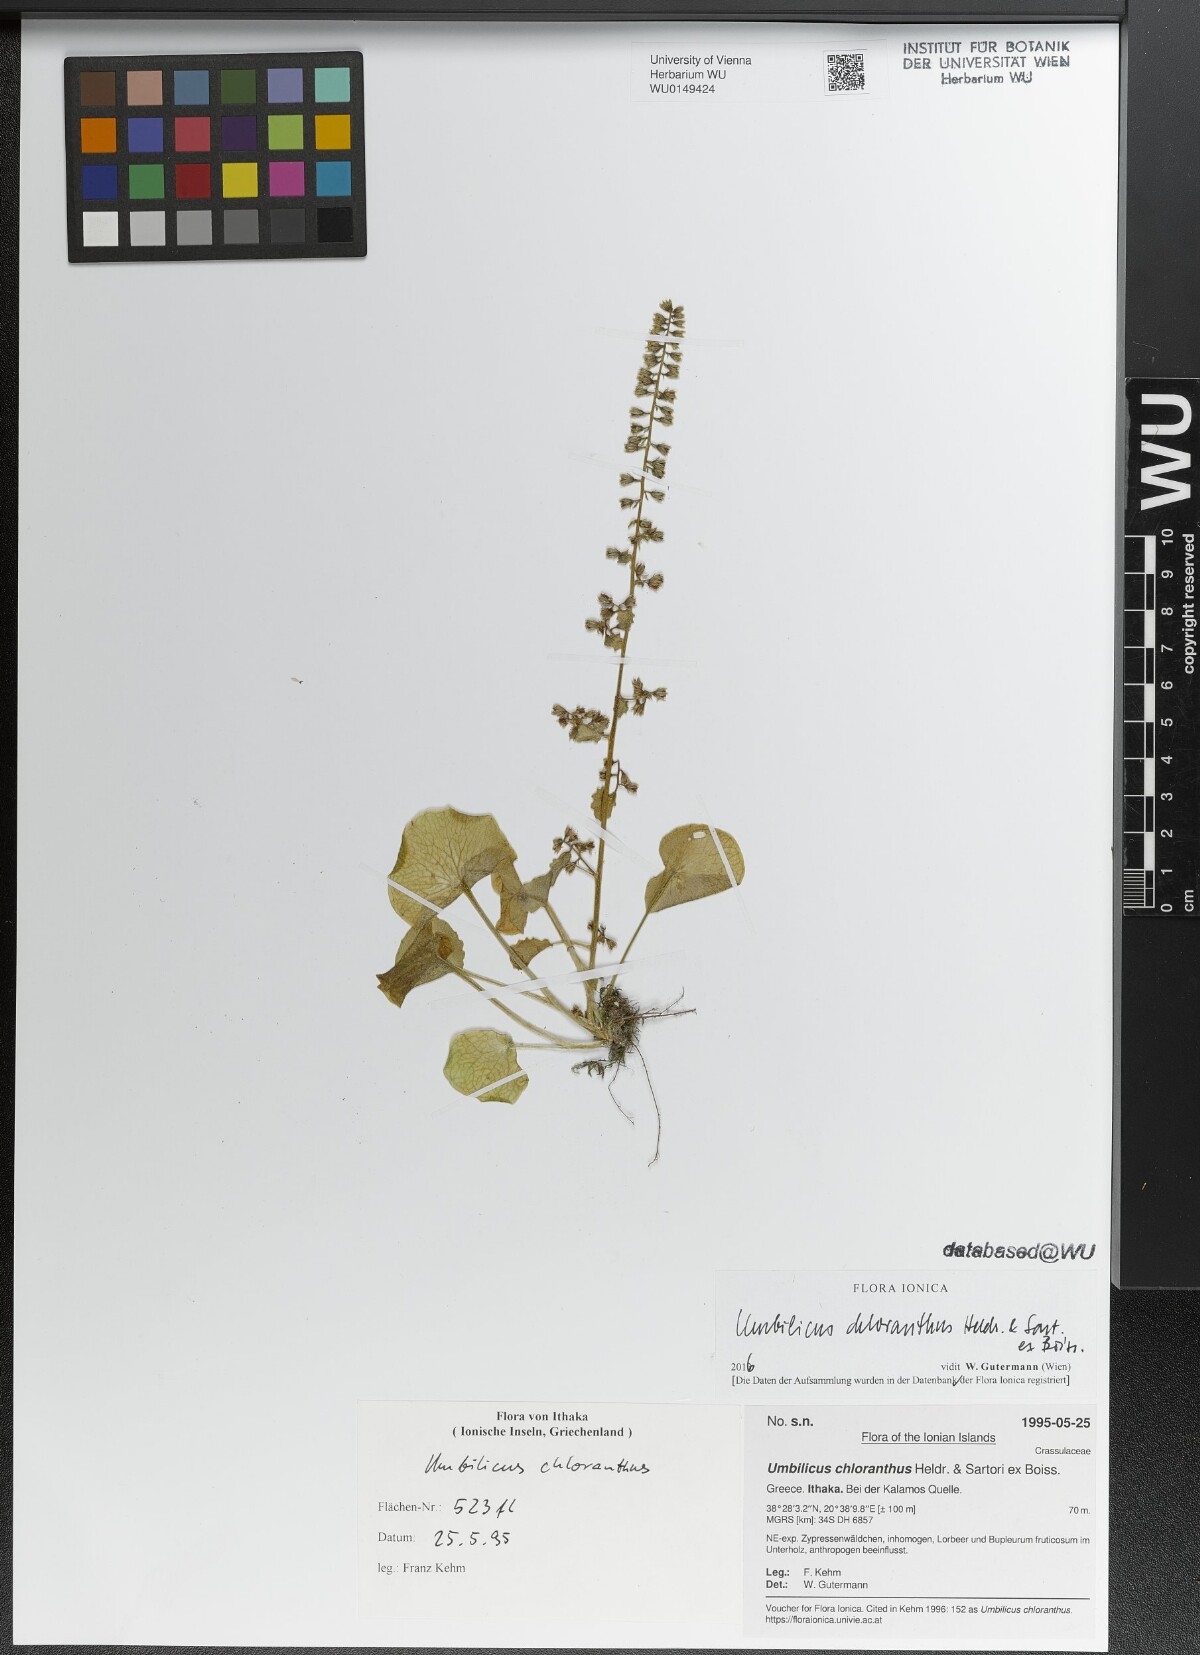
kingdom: Plantae
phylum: Tracheophyta
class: Magnoliopsida
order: Saxifragales
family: Crassulaceae
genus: Umbilicus
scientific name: Umbilicus chloranthus
